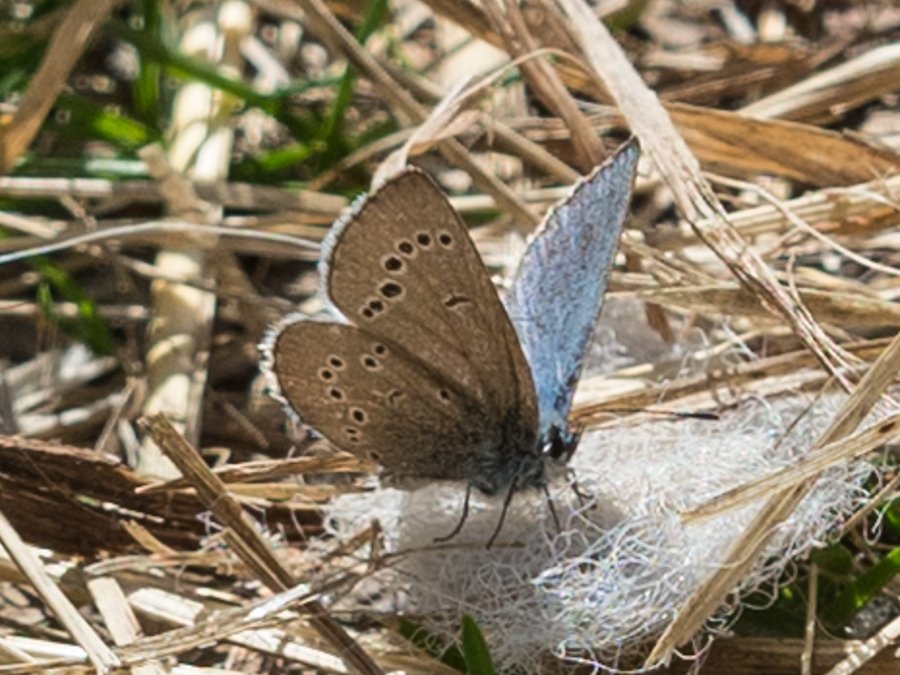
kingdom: Animalia
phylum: Arthropoda
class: Insecta
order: Lepidoptera
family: Lycaenidae
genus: Glaucopsyche
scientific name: Glaucopsyche lygdamus
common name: Silvery Blue
